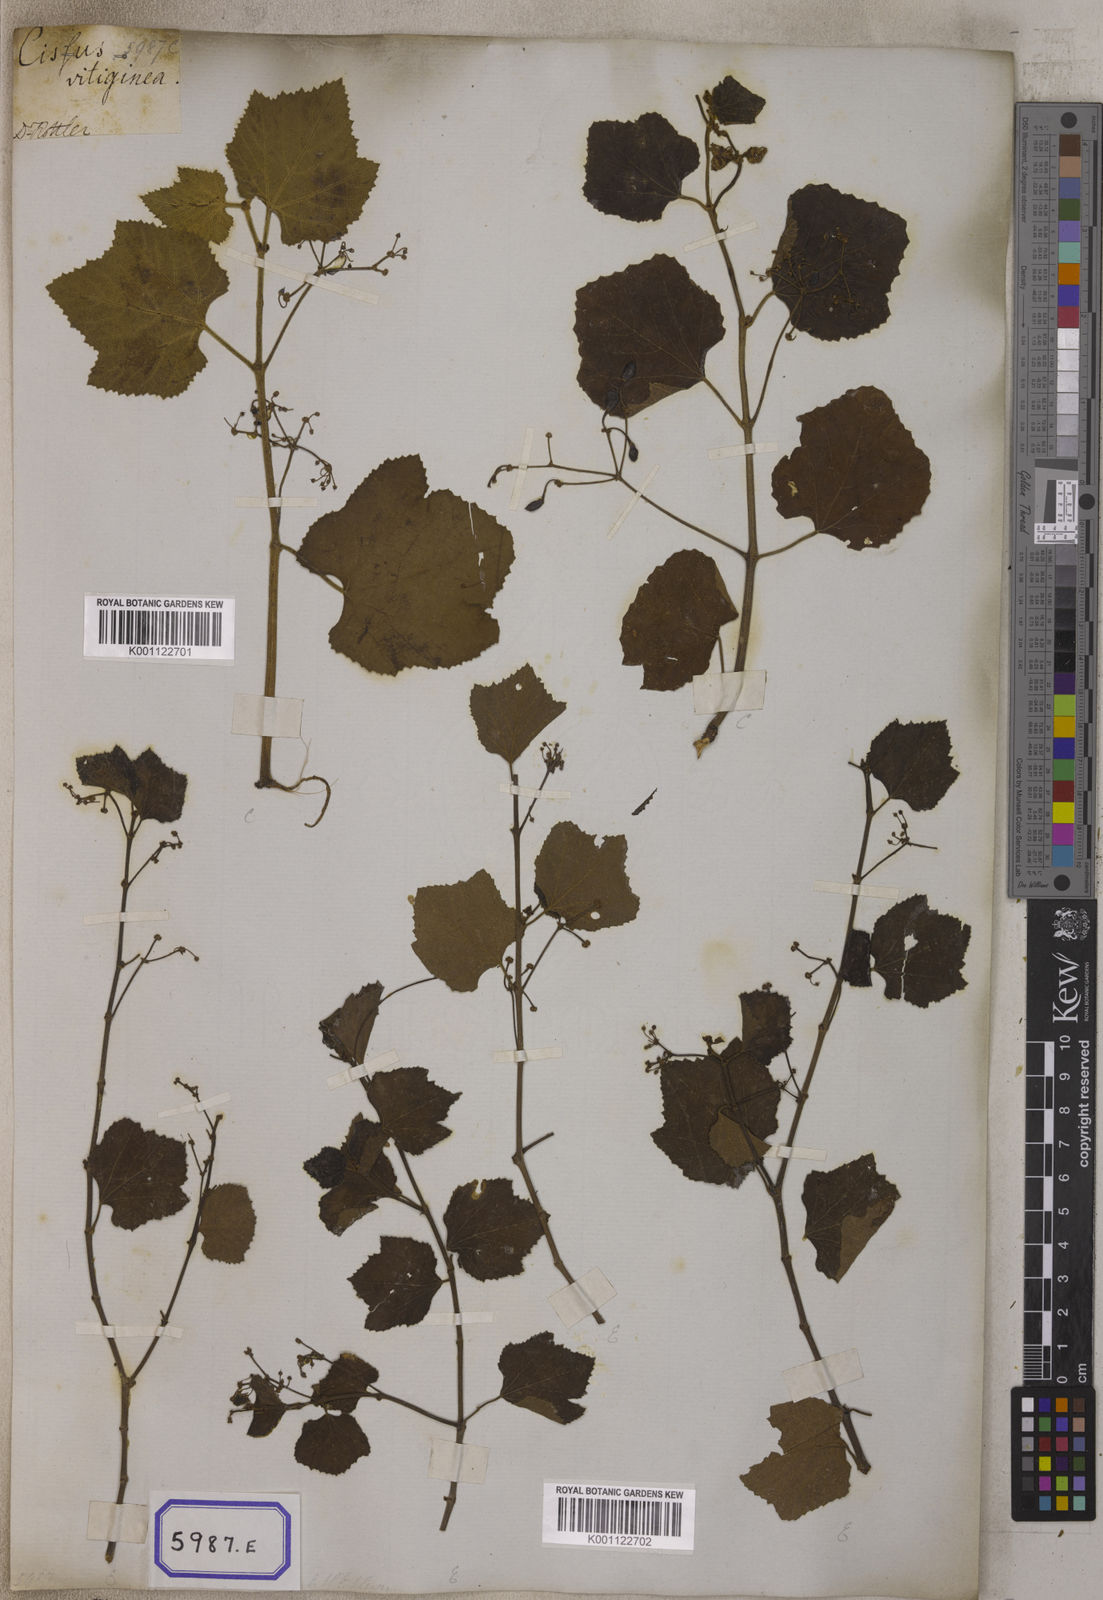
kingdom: Plantae
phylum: Tracheophyta
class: Magnoliopsida
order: Vitales
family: Vitaceae
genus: Vitis
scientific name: Vitis
